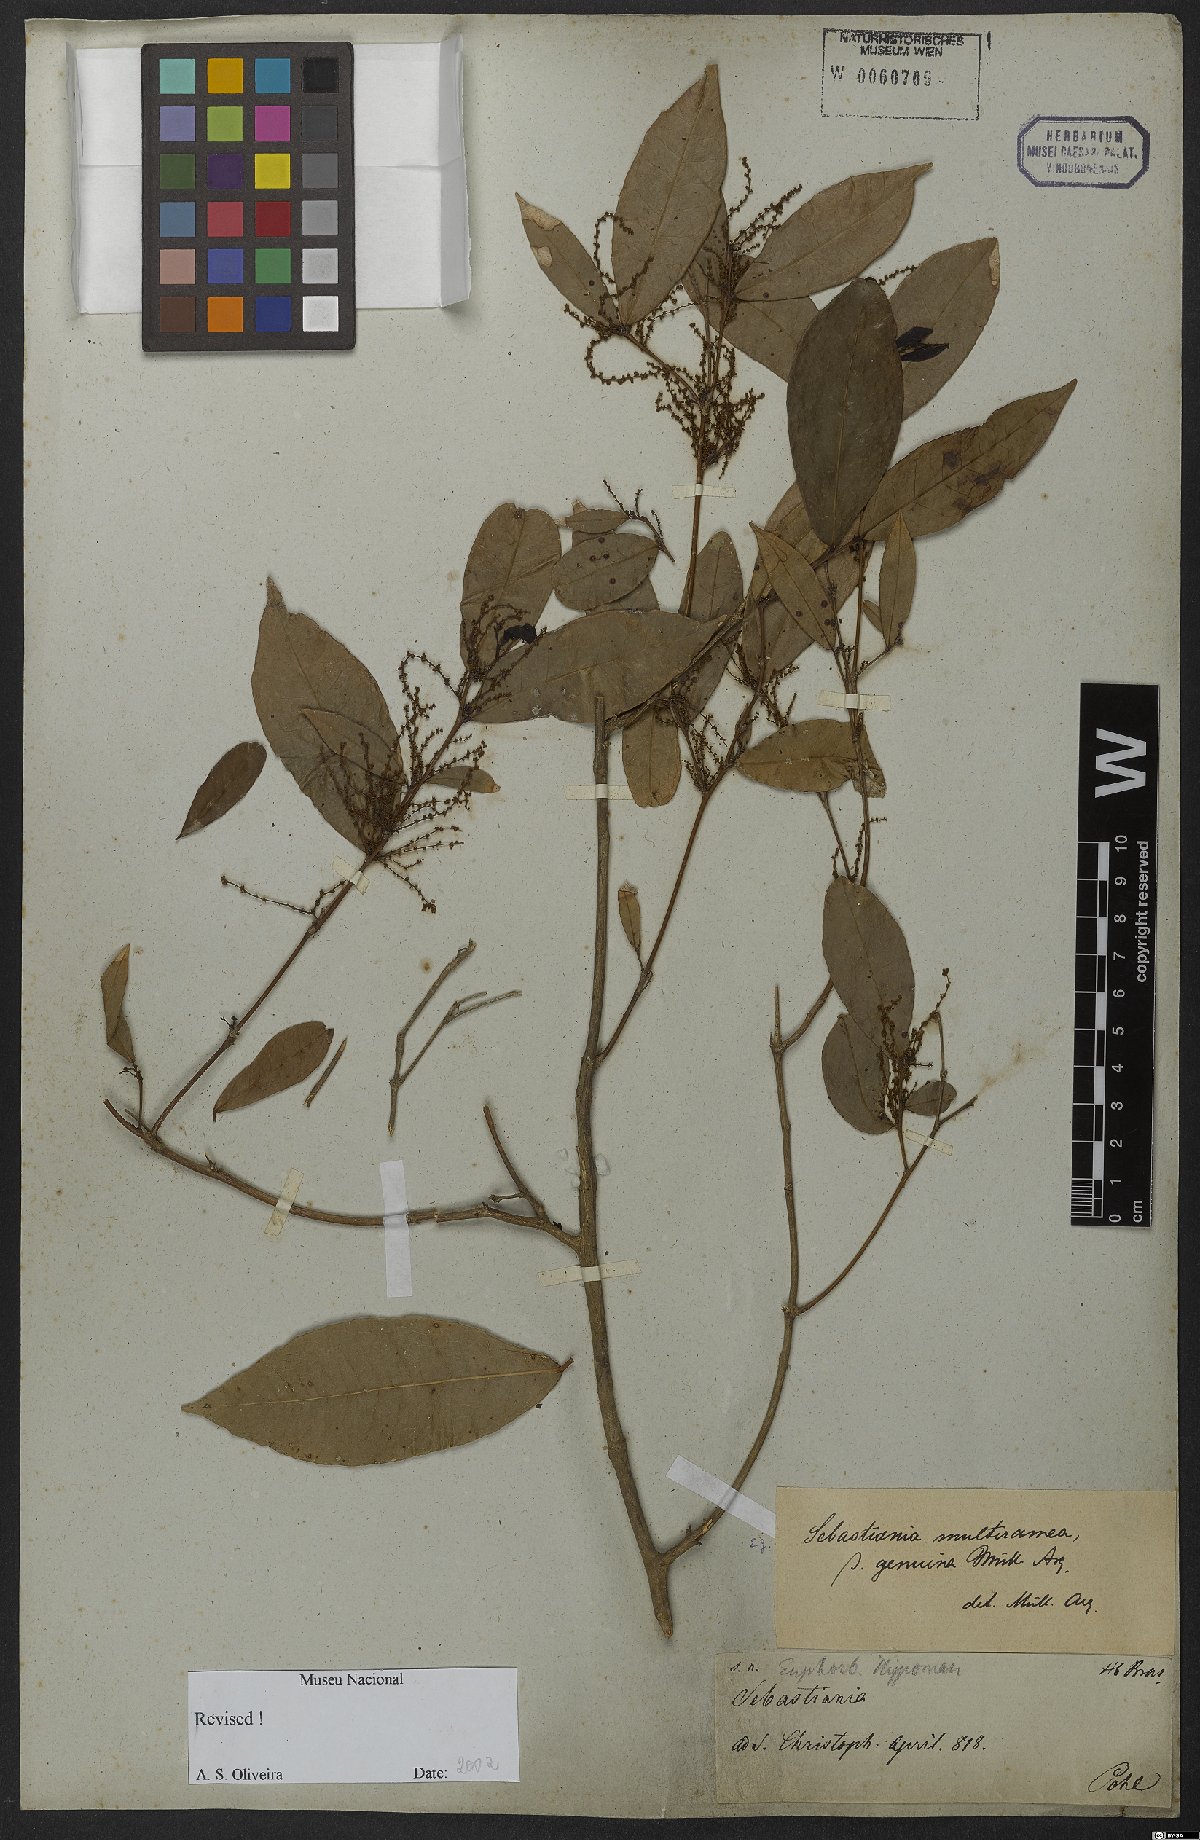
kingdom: Plantae
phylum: Tracheophyta
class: Magnoliopsida
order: Malpighiales
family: Euphorbiaceae
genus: Gymnanthes
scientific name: Gymnanthes glabrata
